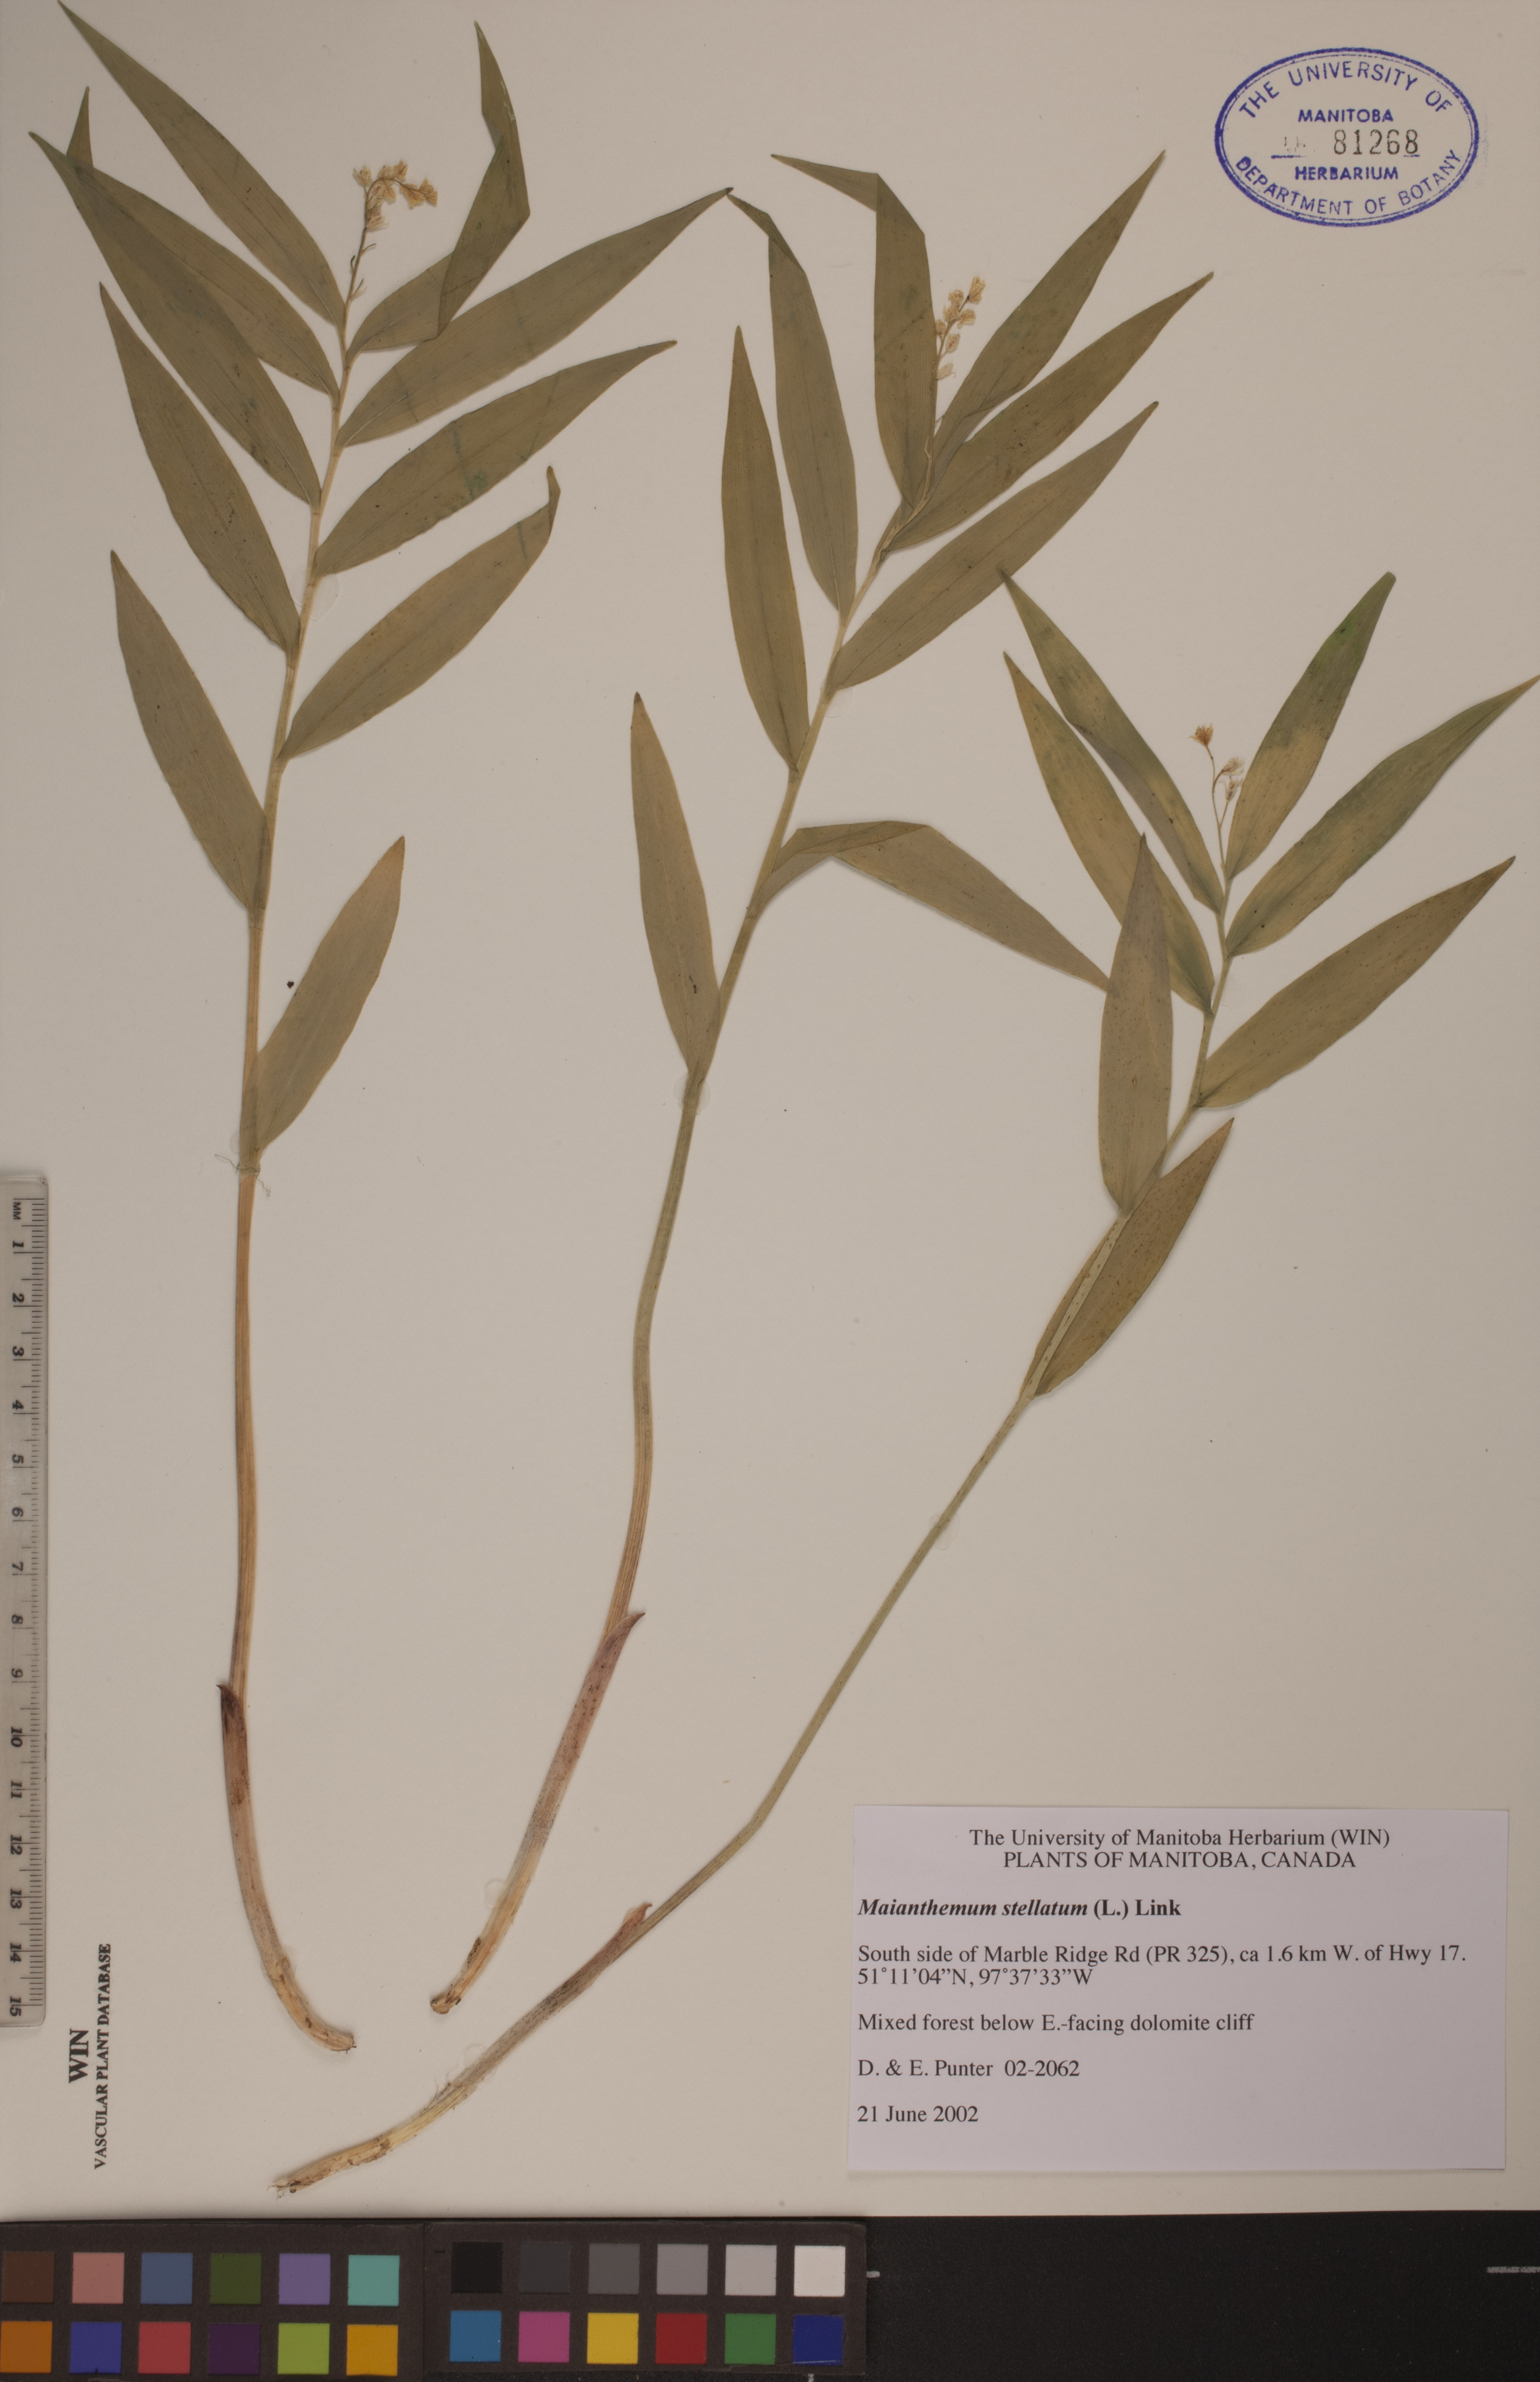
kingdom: Plantae
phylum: Tracheophyta
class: Liliopsida
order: Asparagales
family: Asparagaceae
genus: Maianthemum
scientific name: Maianthemum stellatum
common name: Little false solomon's seal
